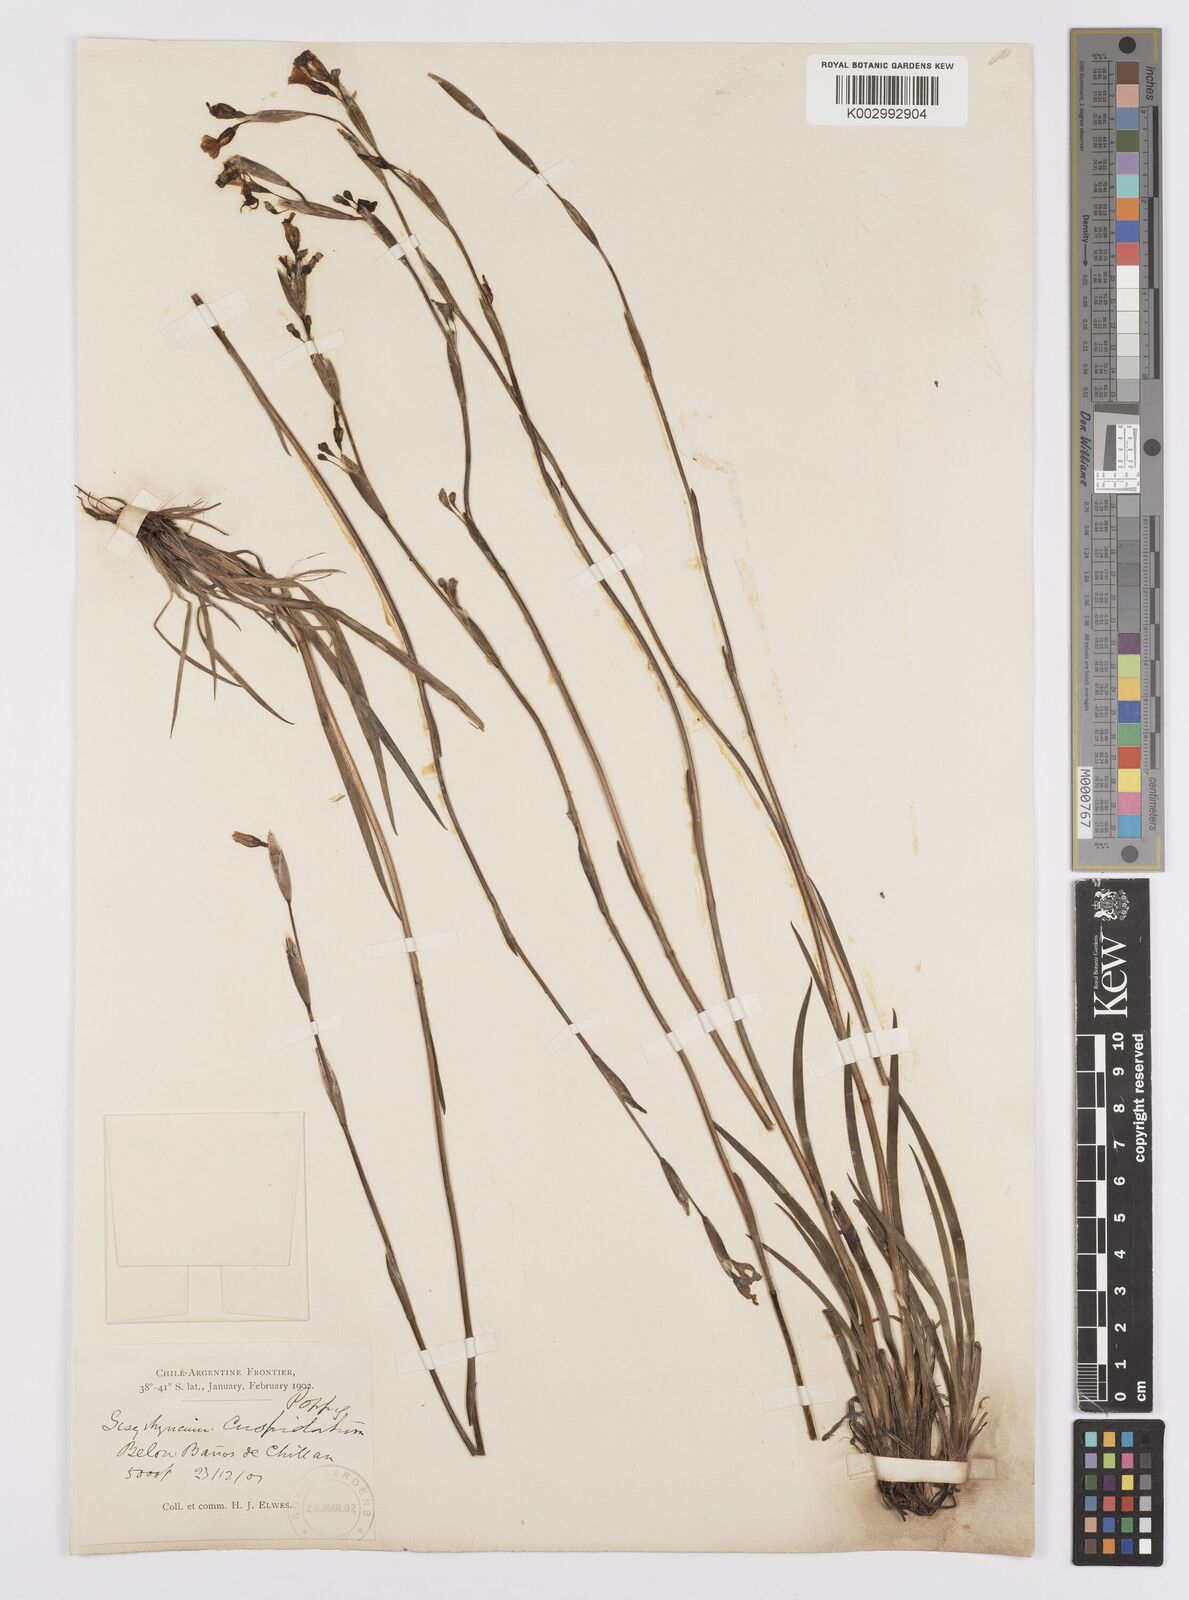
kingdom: Plantae
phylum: Tracheophyta
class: Liliopsida
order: Asparagales
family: Iridaceae
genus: Sisyrinchium
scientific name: Sisyrinchium cuspidatum
